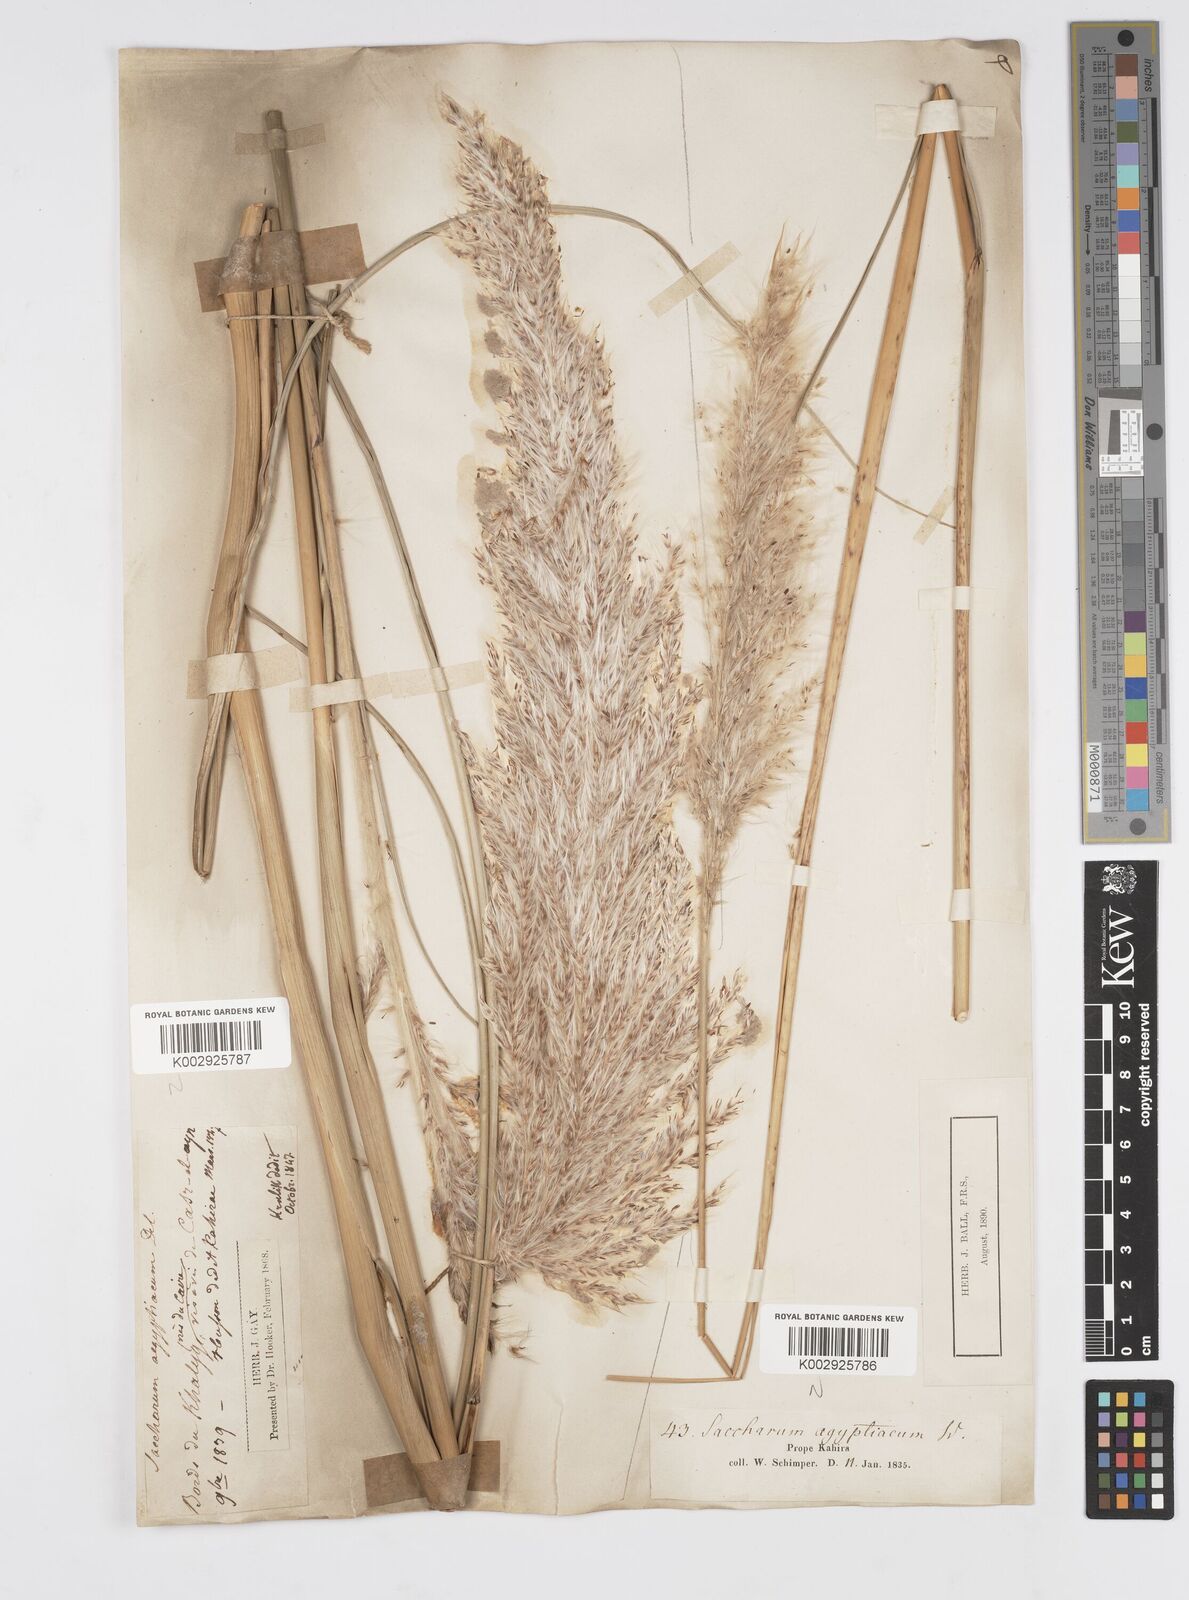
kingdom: Plantae
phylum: Tracheophyta
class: Liliopsida
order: Poales
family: Poaceae
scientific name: Poaceae
